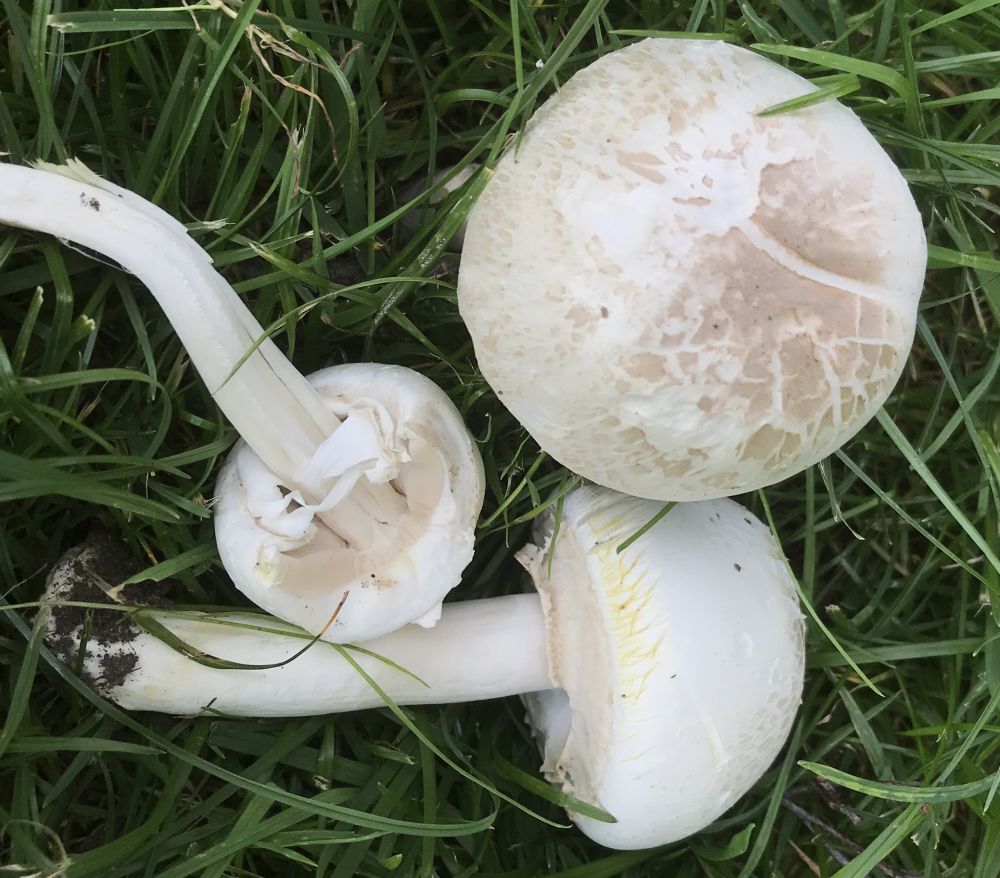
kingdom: Fungi
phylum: Basidiomycota
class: Agaricomycetes
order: Agaricales
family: Agaricaceae
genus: Agaricus
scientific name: Agaricus xanthodermus
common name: karbol-champignon
